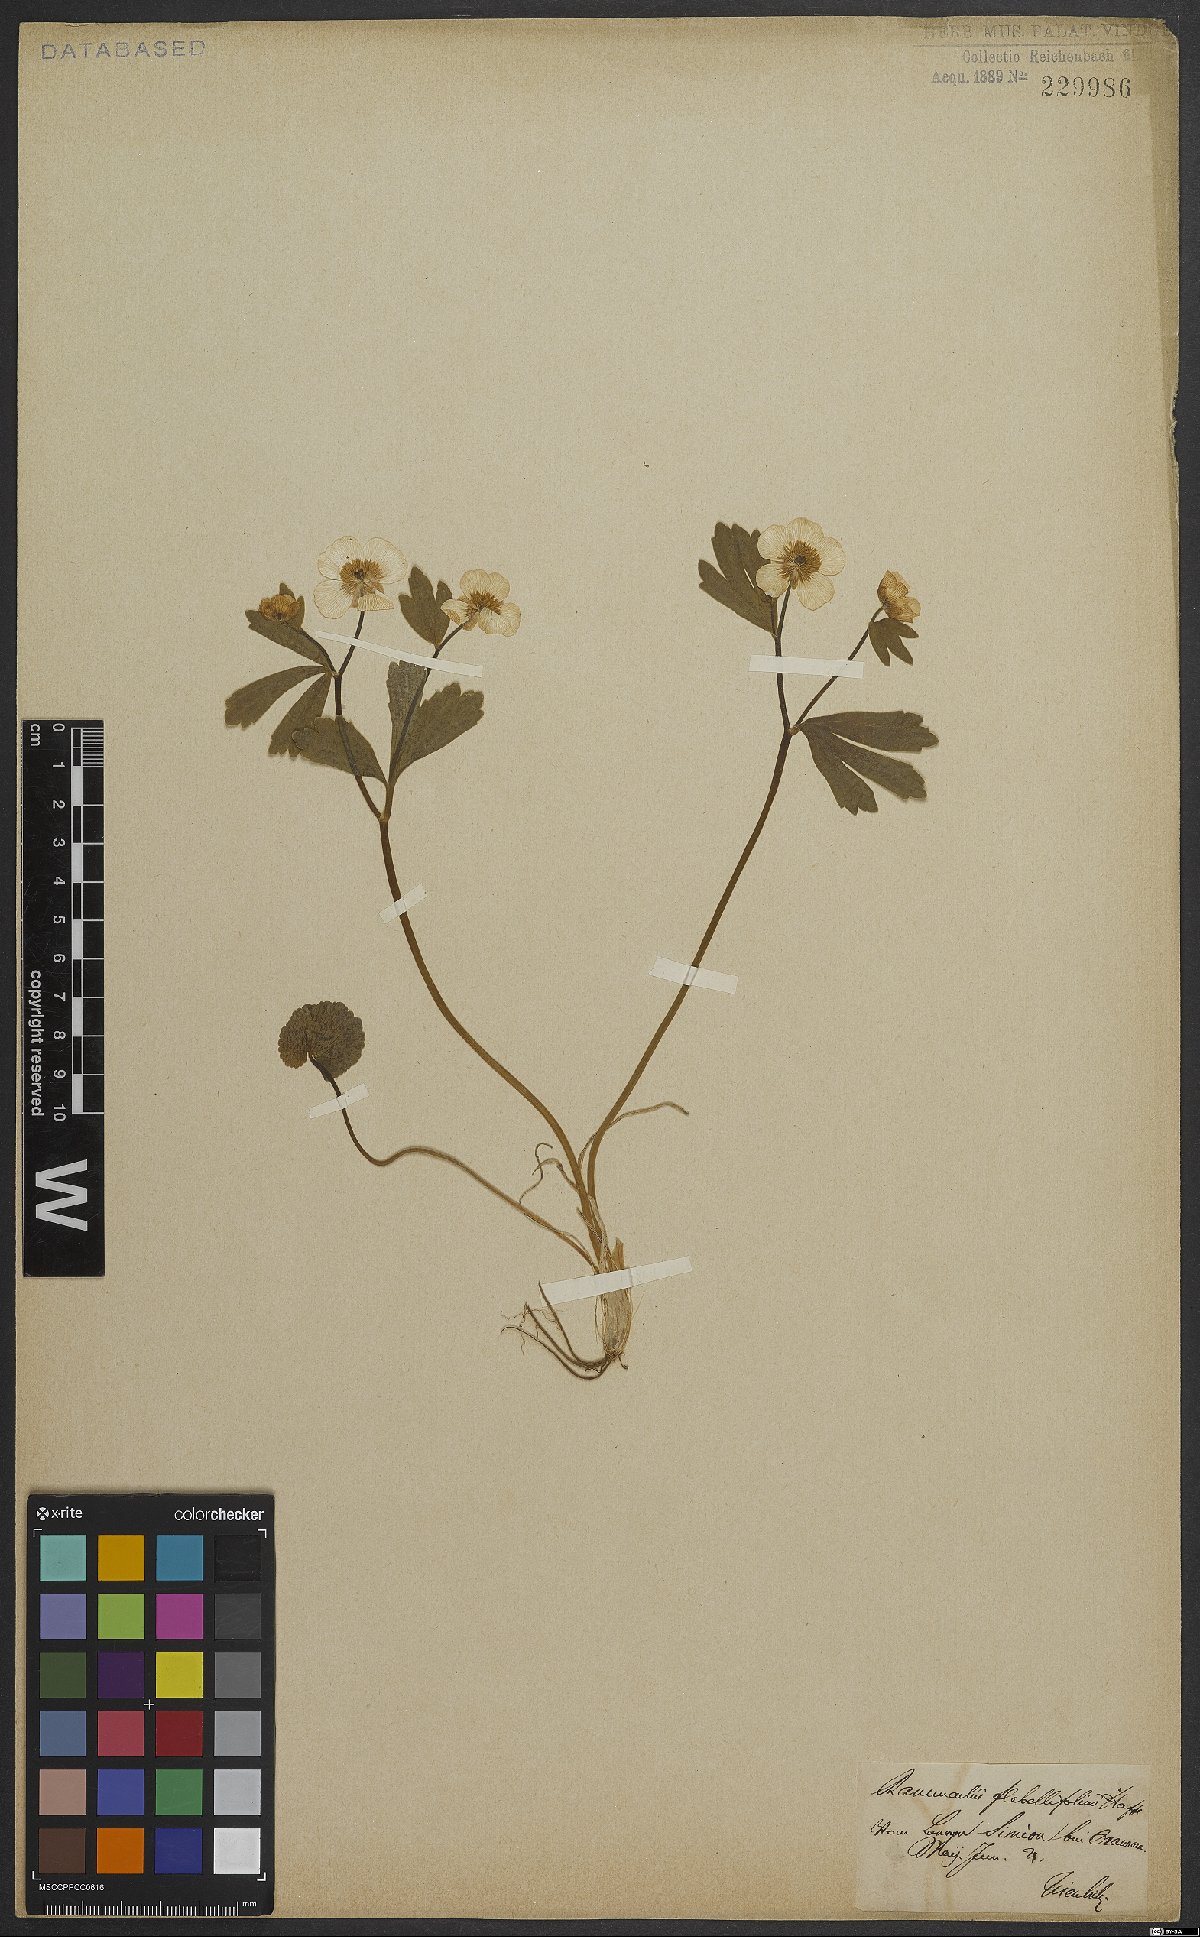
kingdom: Plantae
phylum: Tracheophyta
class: Magnoliopsida
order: Ranunculales
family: Ranunculaceae
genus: Ranunculus
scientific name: Ranunculus flabellifolius
